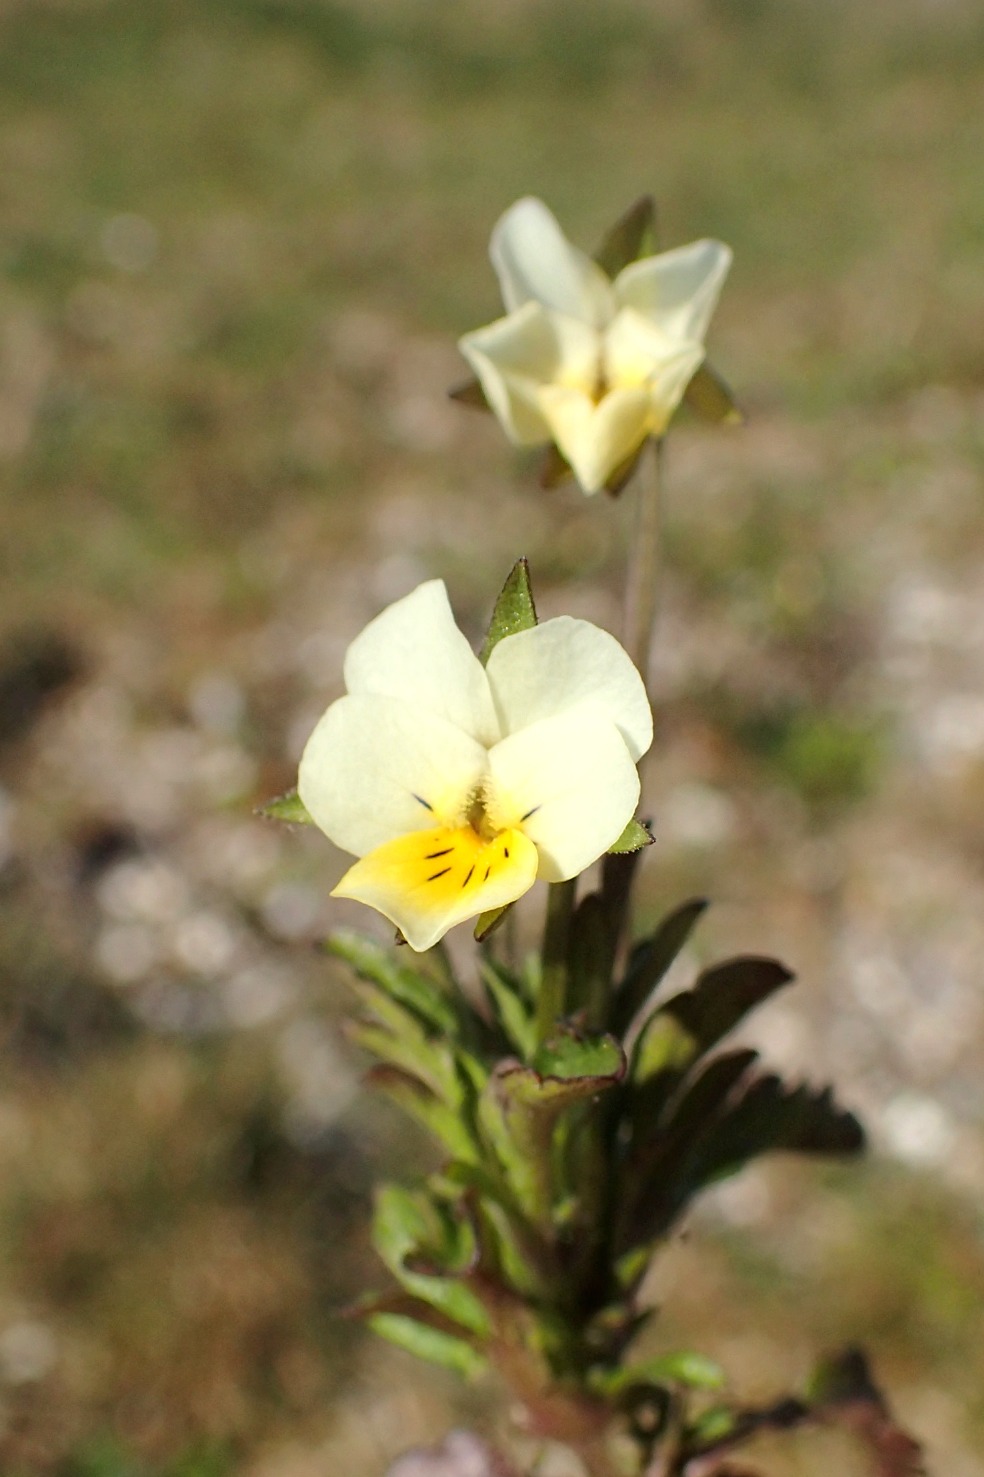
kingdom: Plantae
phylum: Tracheophyta
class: Magnoliopsida
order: Malpighiales
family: Violaceae
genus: Viola
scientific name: Viola arvensis
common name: Ager-stedmoderblomst
